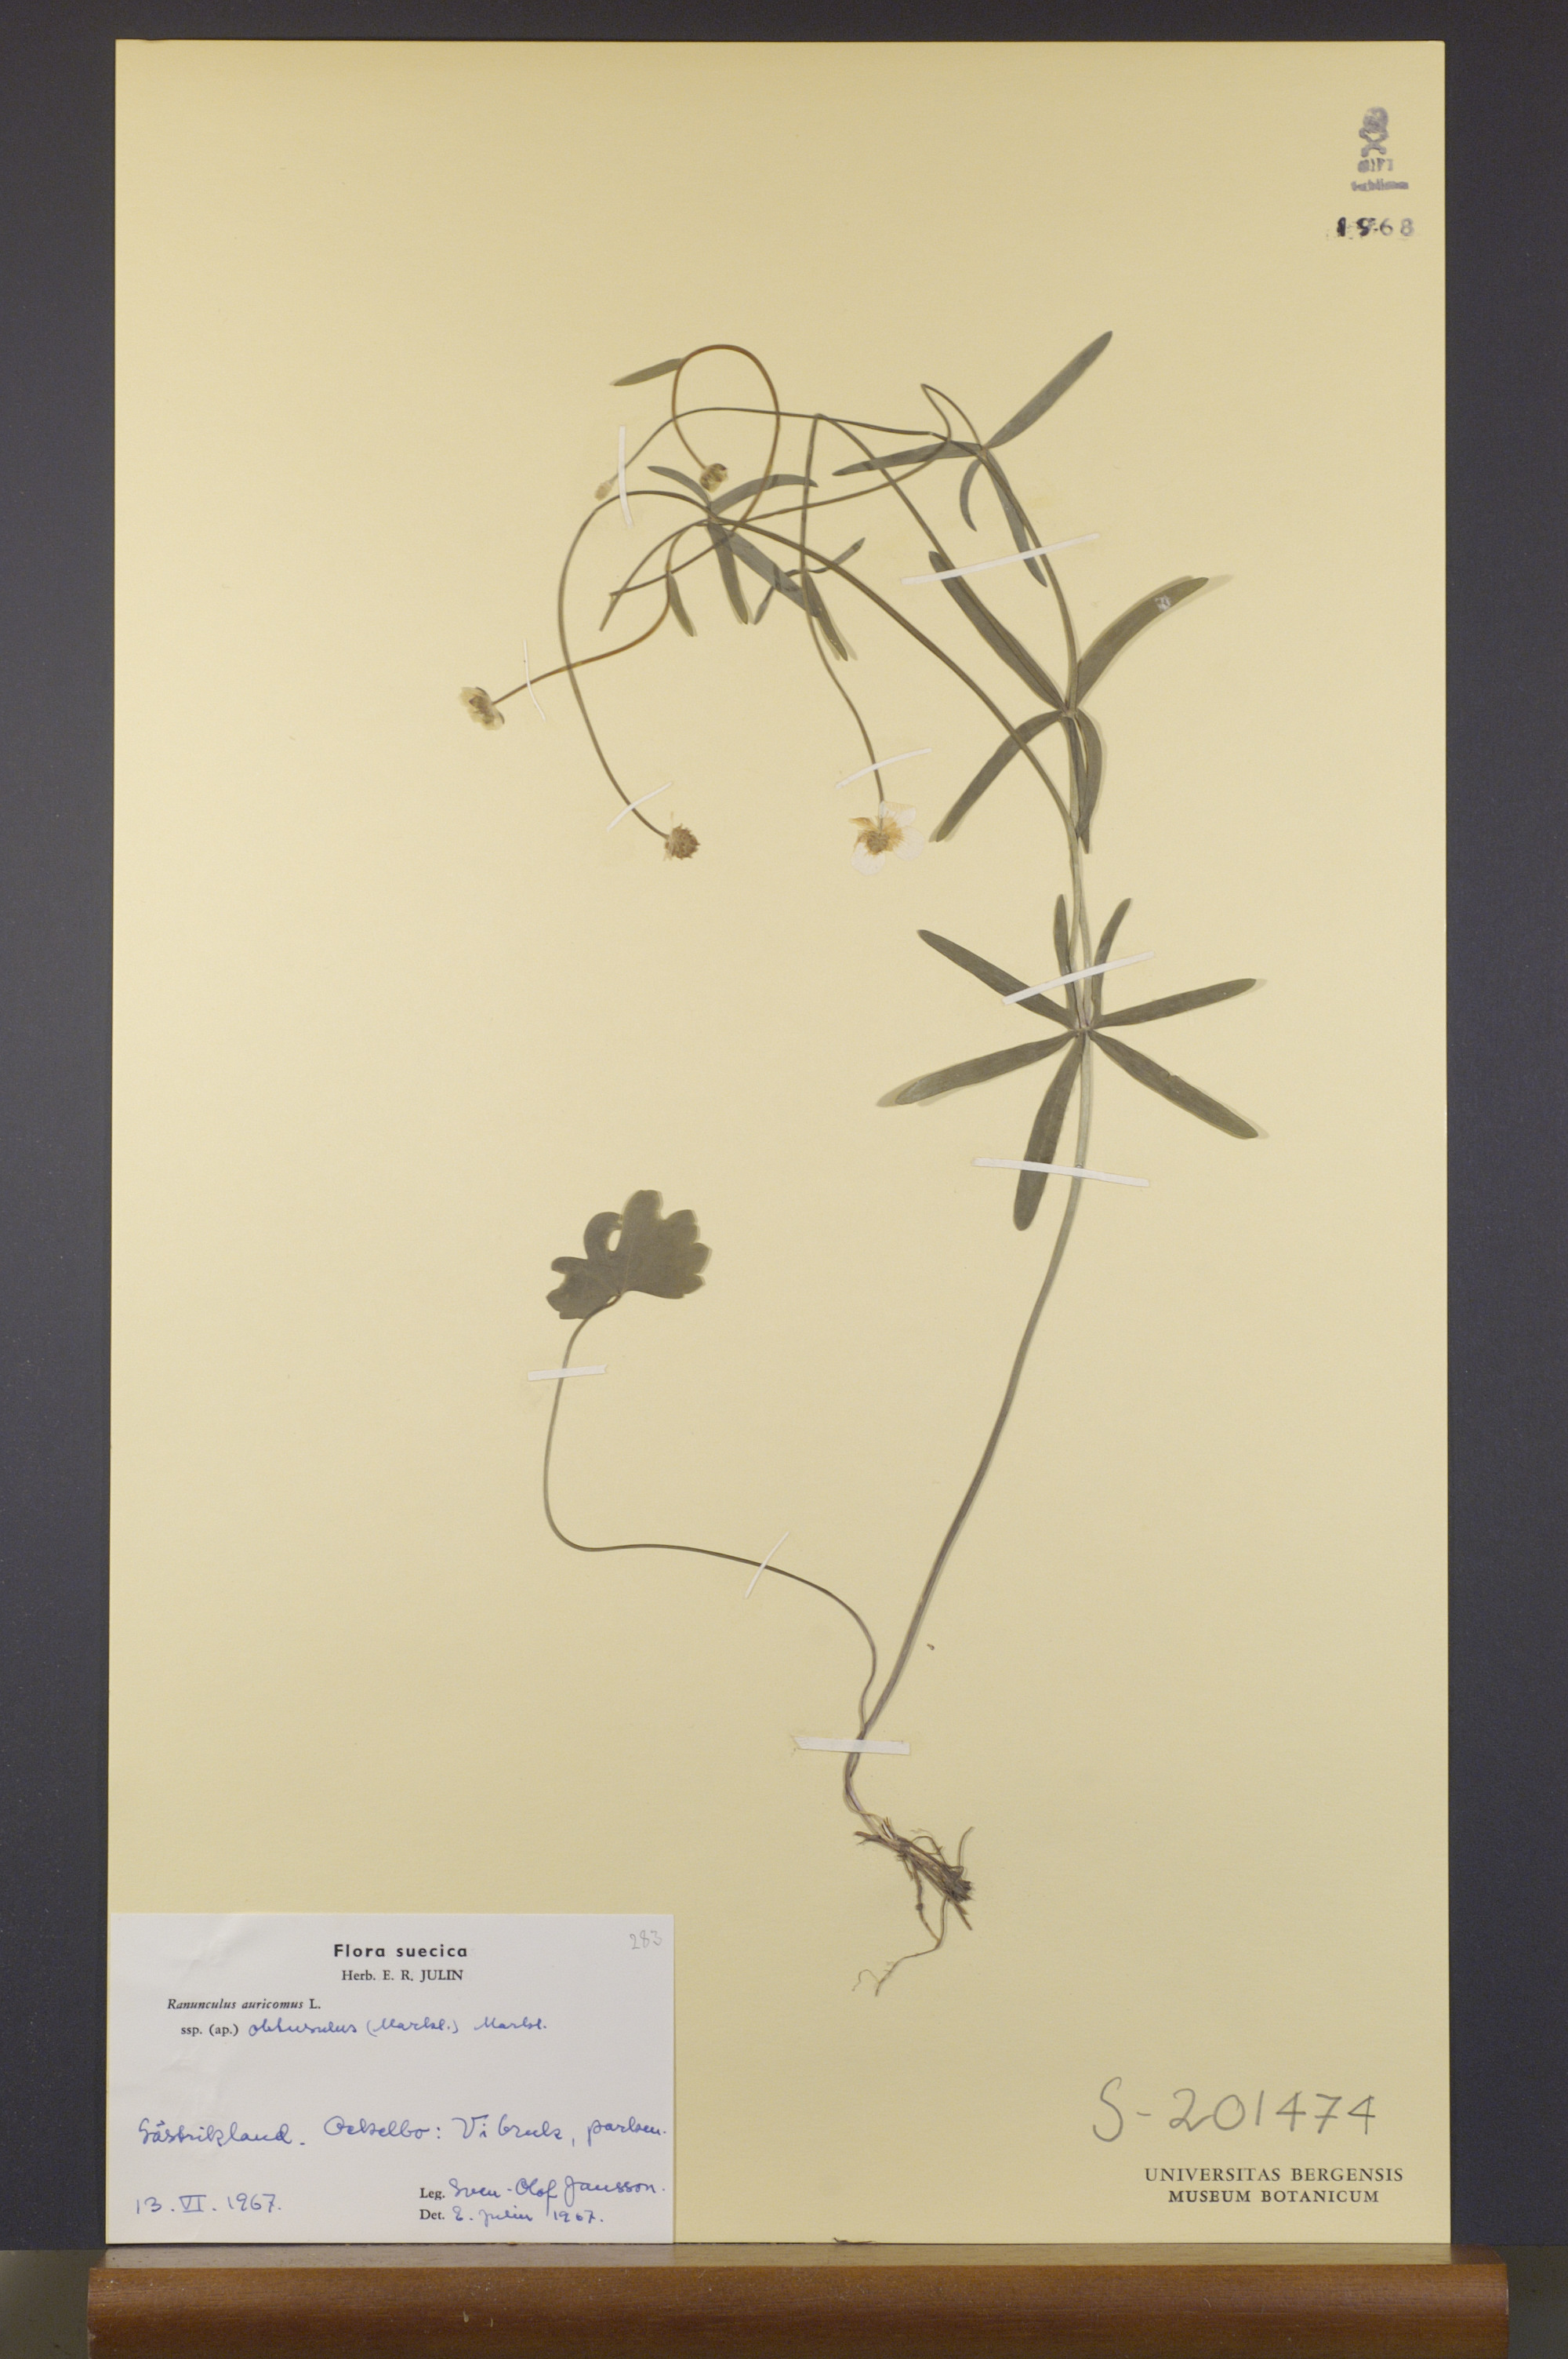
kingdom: Plantae
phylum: Tracheophyta
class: Magnoliopsida
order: Ranunculales
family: Ranunculaceae
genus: Ranunculus
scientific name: Ranunculus auricomus
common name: Goldilocks buttercup
